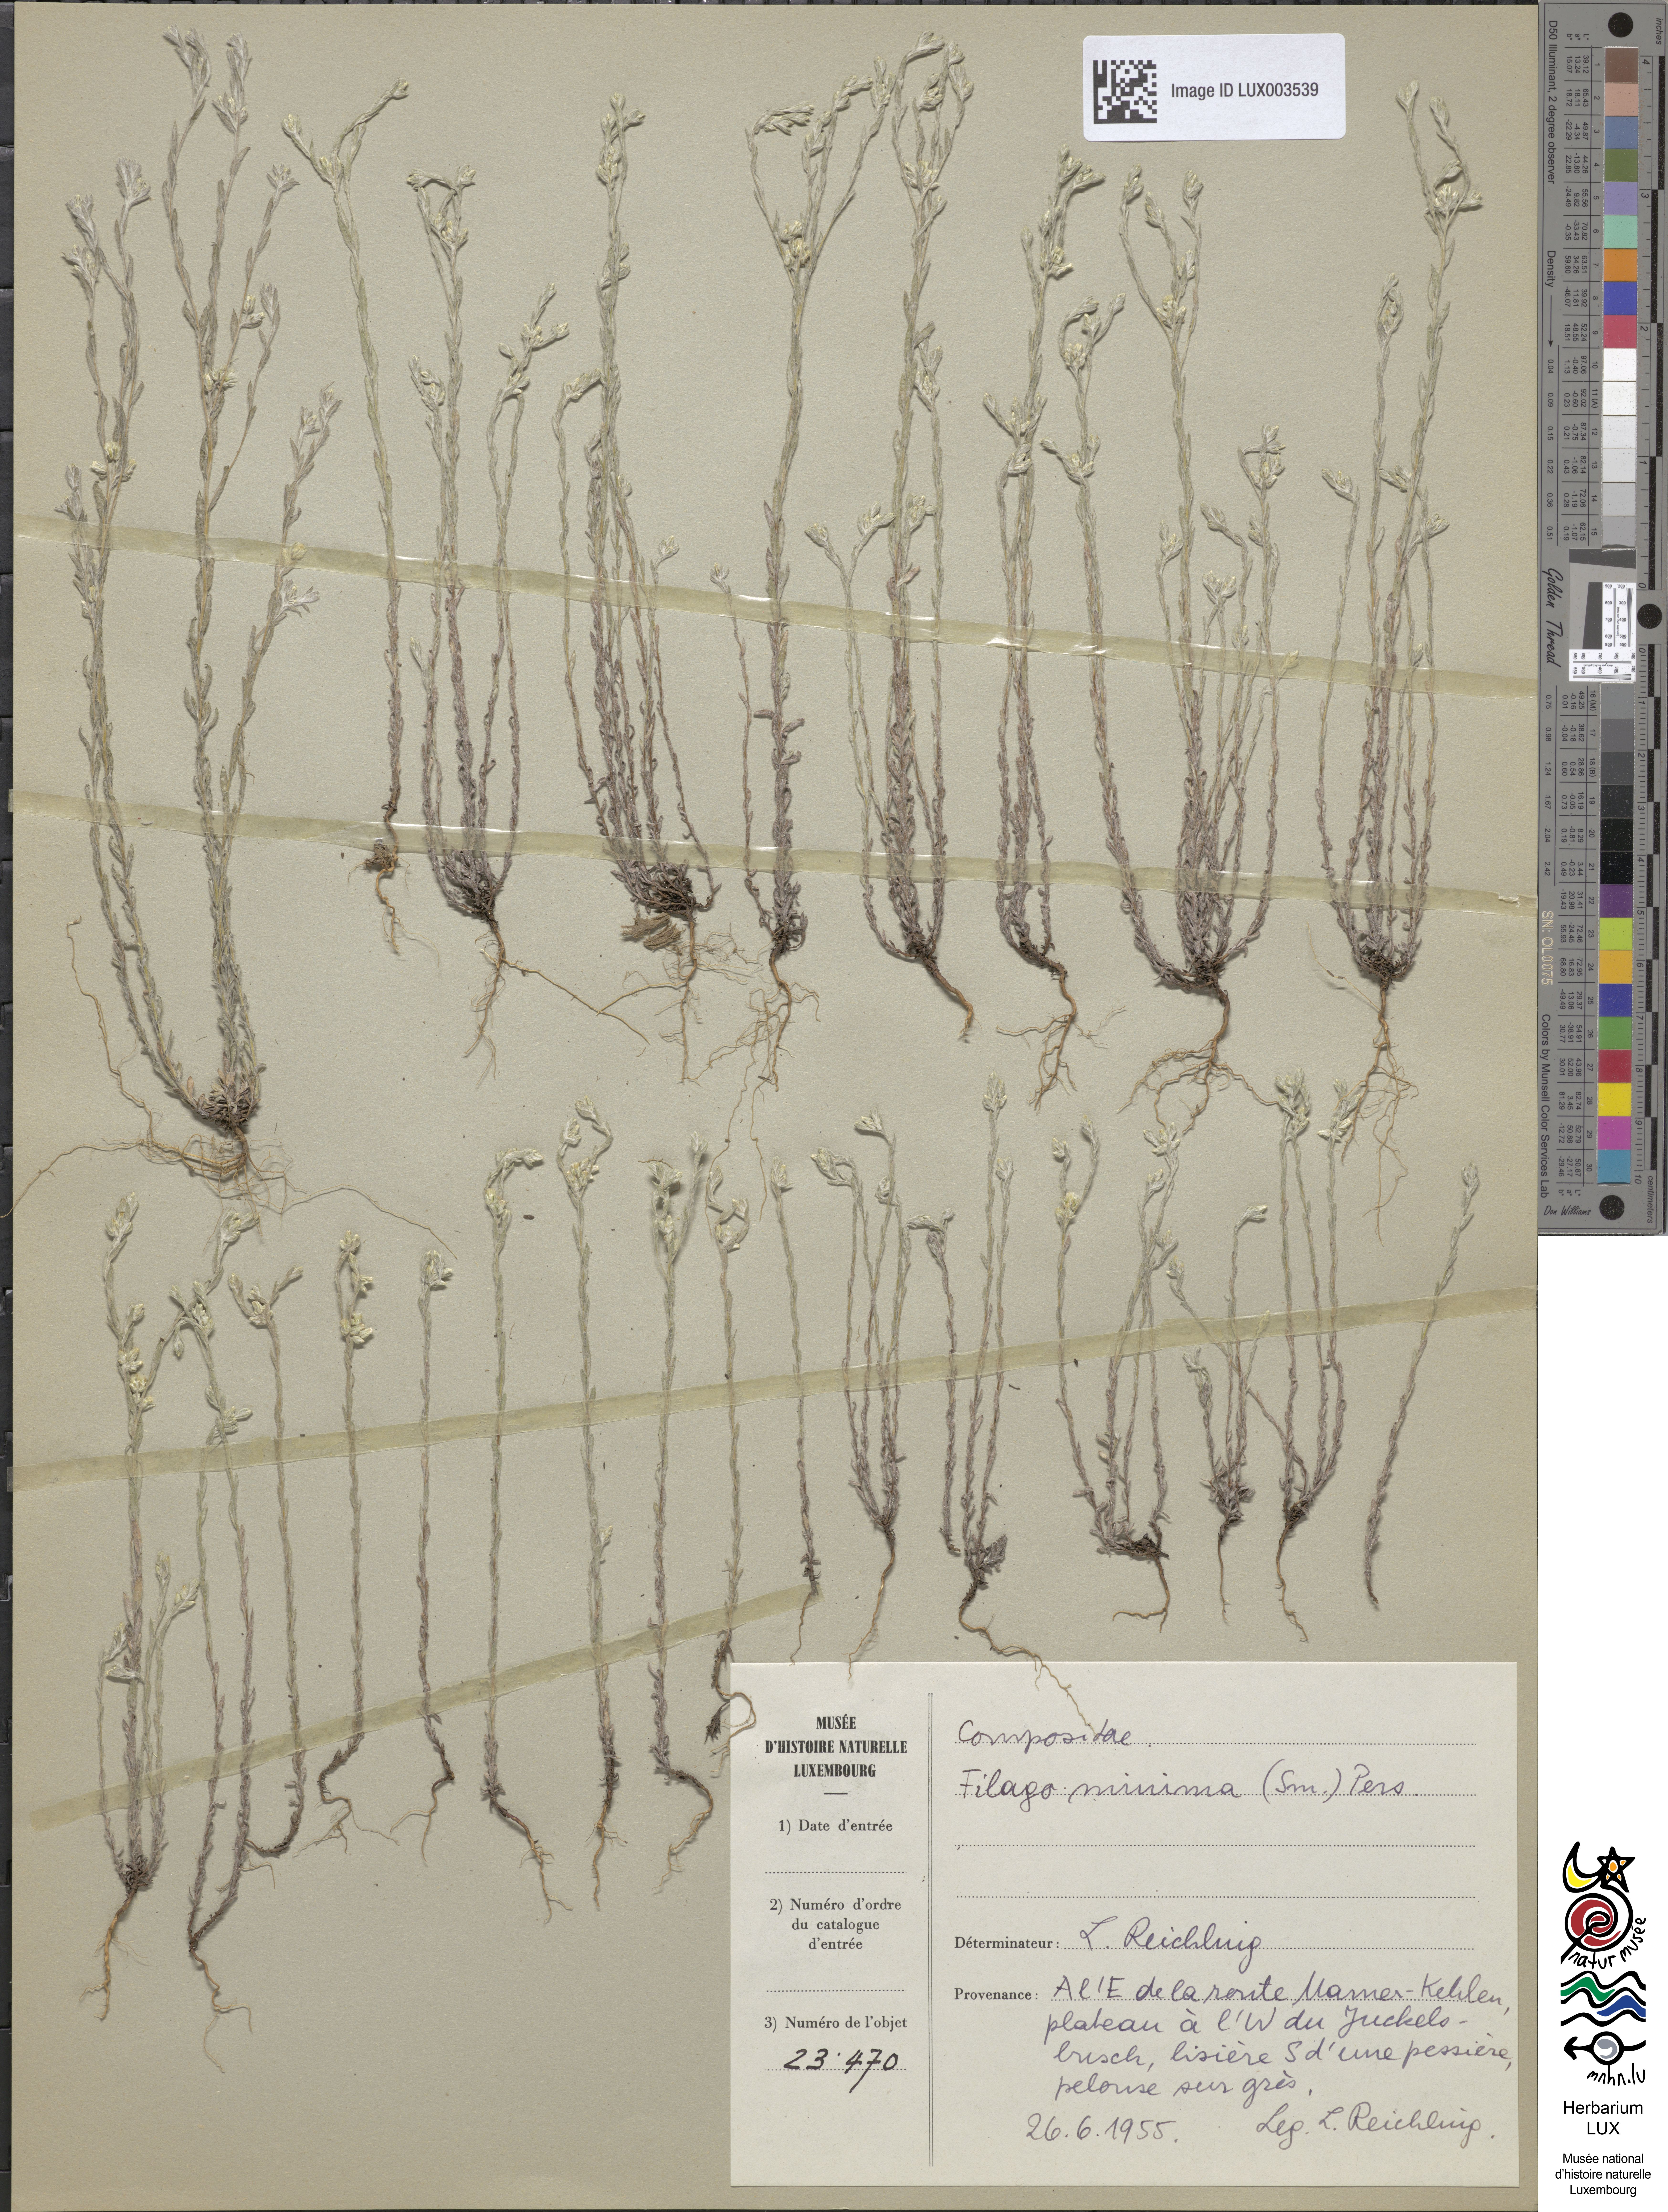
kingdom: Plantae
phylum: Tracheophyta
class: Magnoliopsida
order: Asterales
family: Asteraceae
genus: Logfia
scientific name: Logfia minima
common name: Little cottonrose
